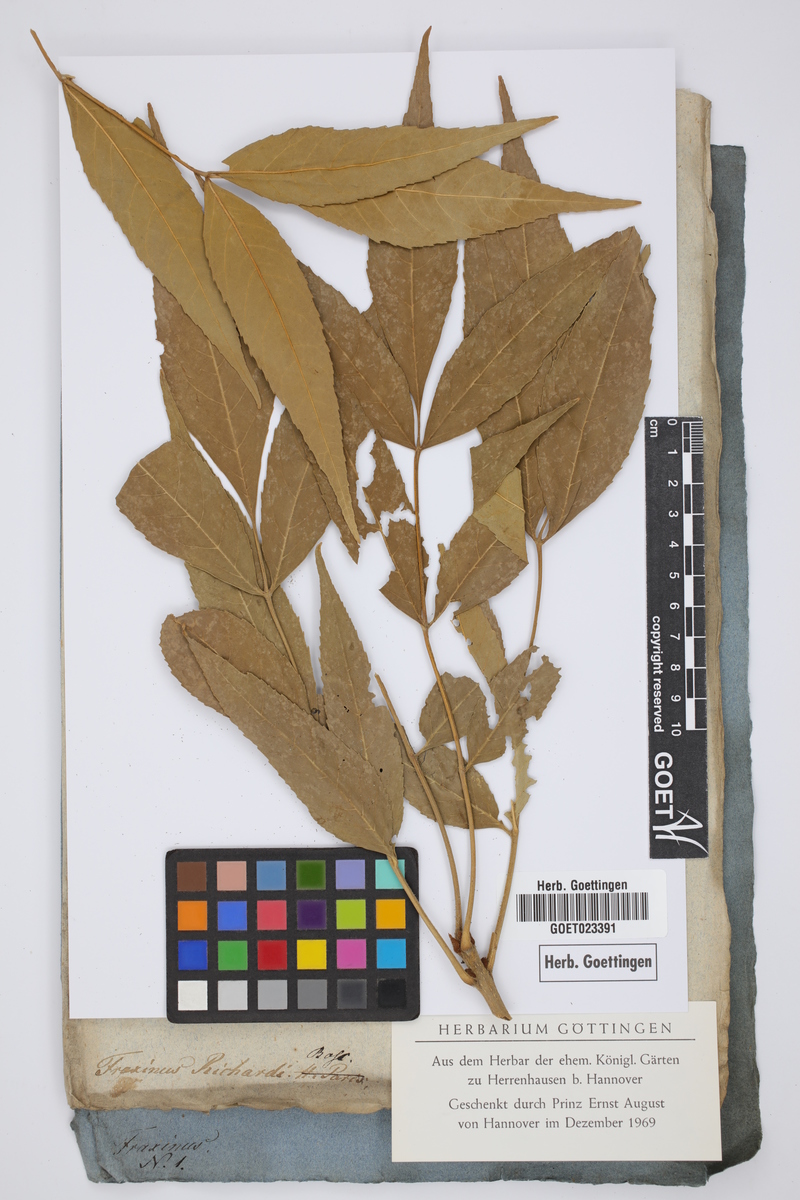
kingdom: Plantae
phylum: Tracheophyta
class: Magnoliopsida
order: Lamiales
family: Oleaceae
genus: Fraxinus
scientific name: Fraxinus pennsylvanica
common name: Green ash
